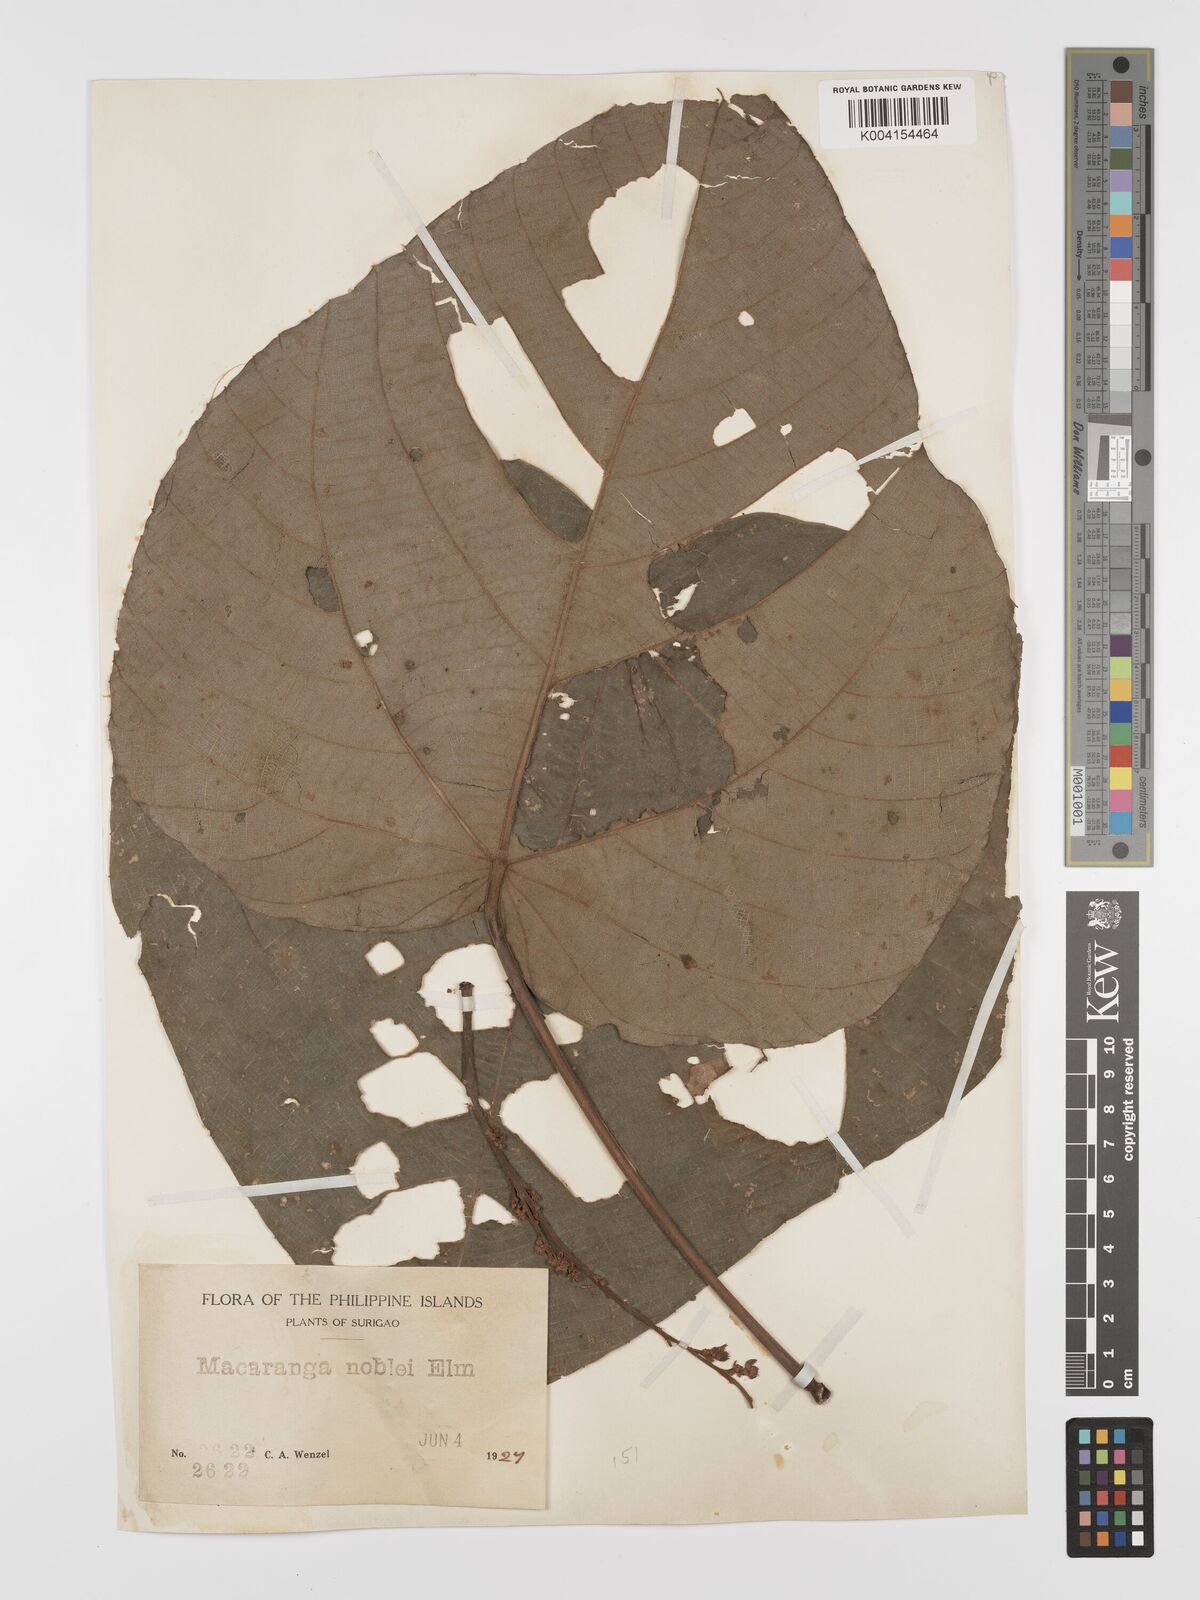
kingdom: Plantae
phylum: Tracheophyta
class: Magnoliopsida
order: Malpighiales
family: Euphorbiaceae
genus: Macaranga
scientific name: Macaranga noblei
